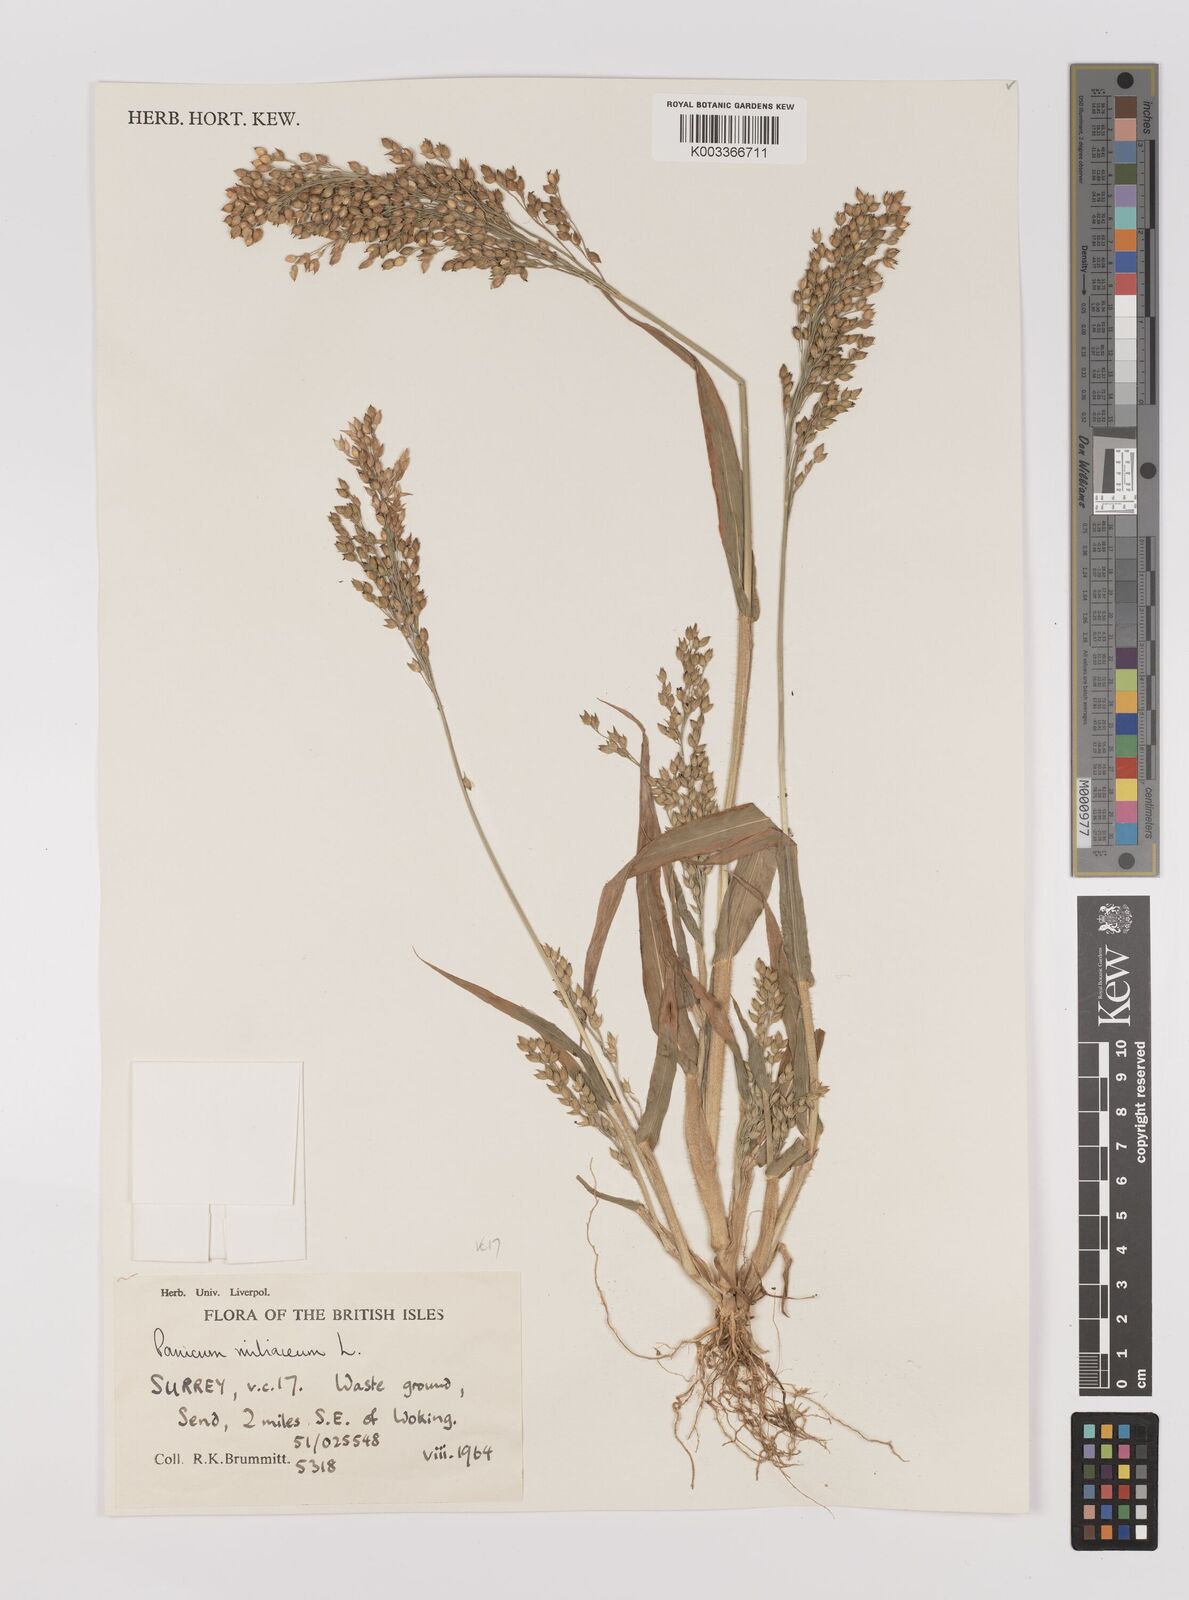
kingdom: Plantae
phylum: Tracheophyta
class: Liliopsida
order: Poales
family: Poaceae
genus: Panicum
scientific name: Panicum miliaceum
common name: Common millet
